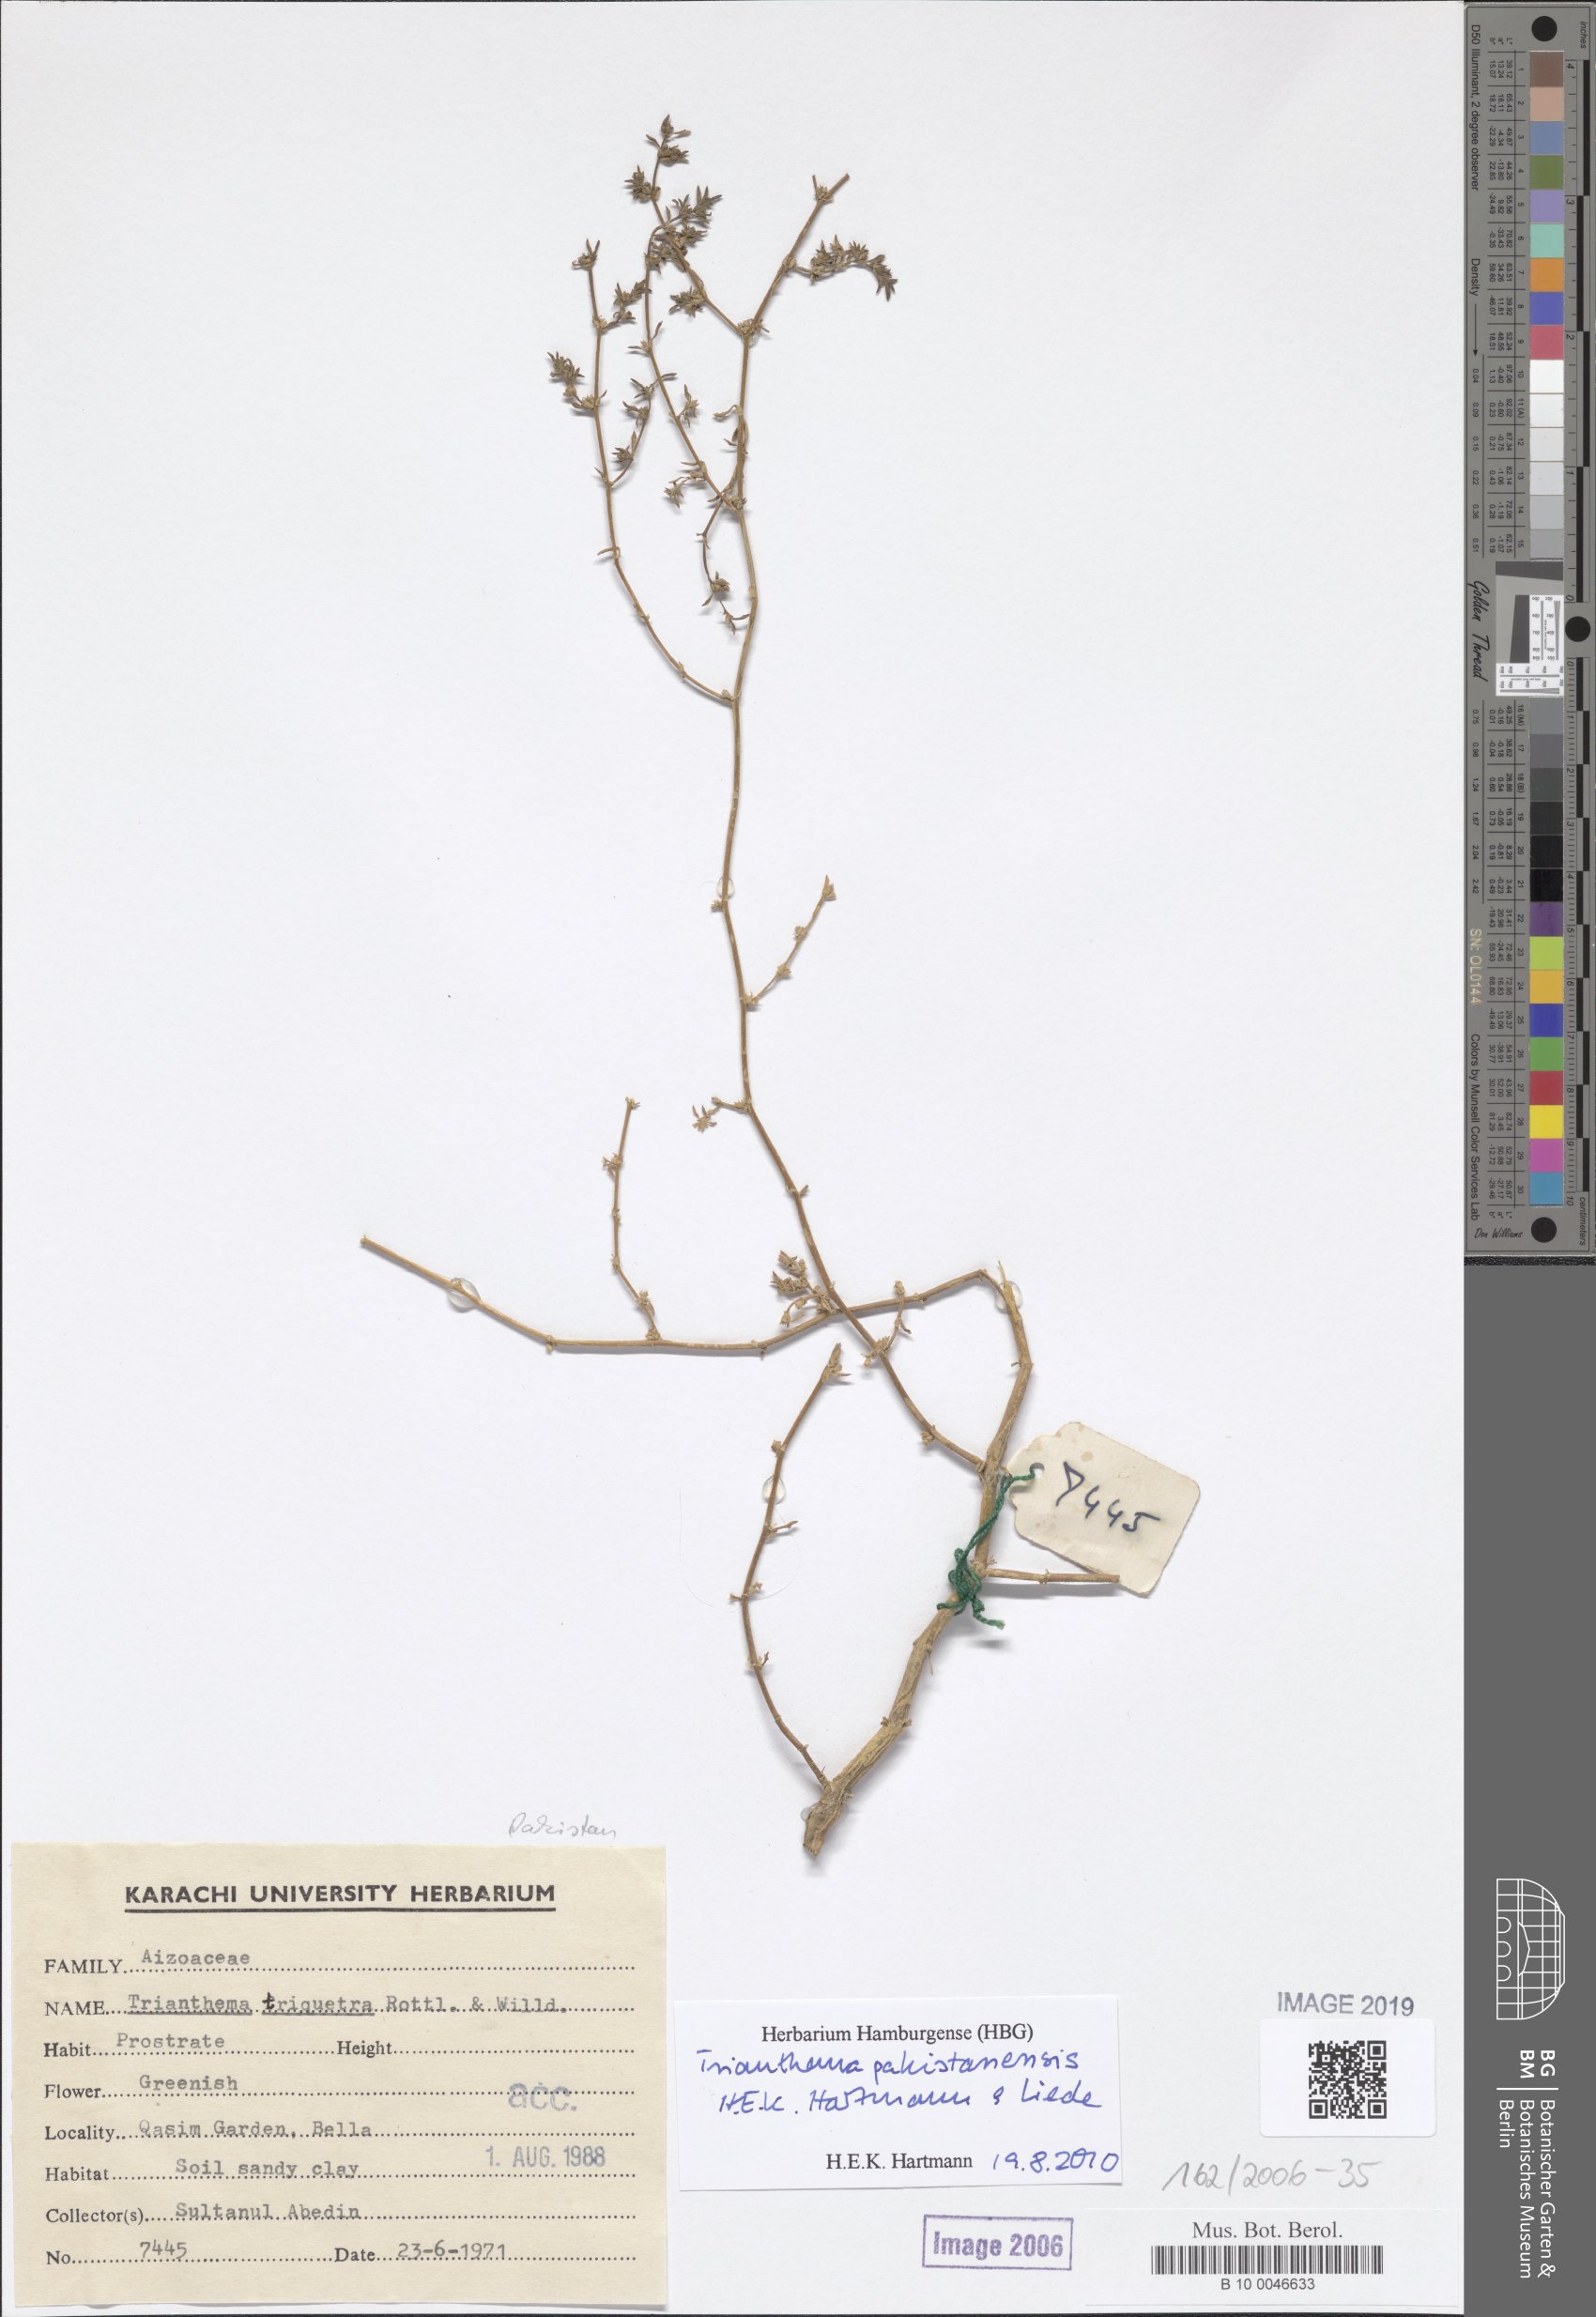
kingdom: Plantae
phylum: Tracheophyta
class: Magnoliopsida
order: Caryophyllales
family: Aizoaceae
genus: Trianthema
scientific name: Trianthema triquetrum
